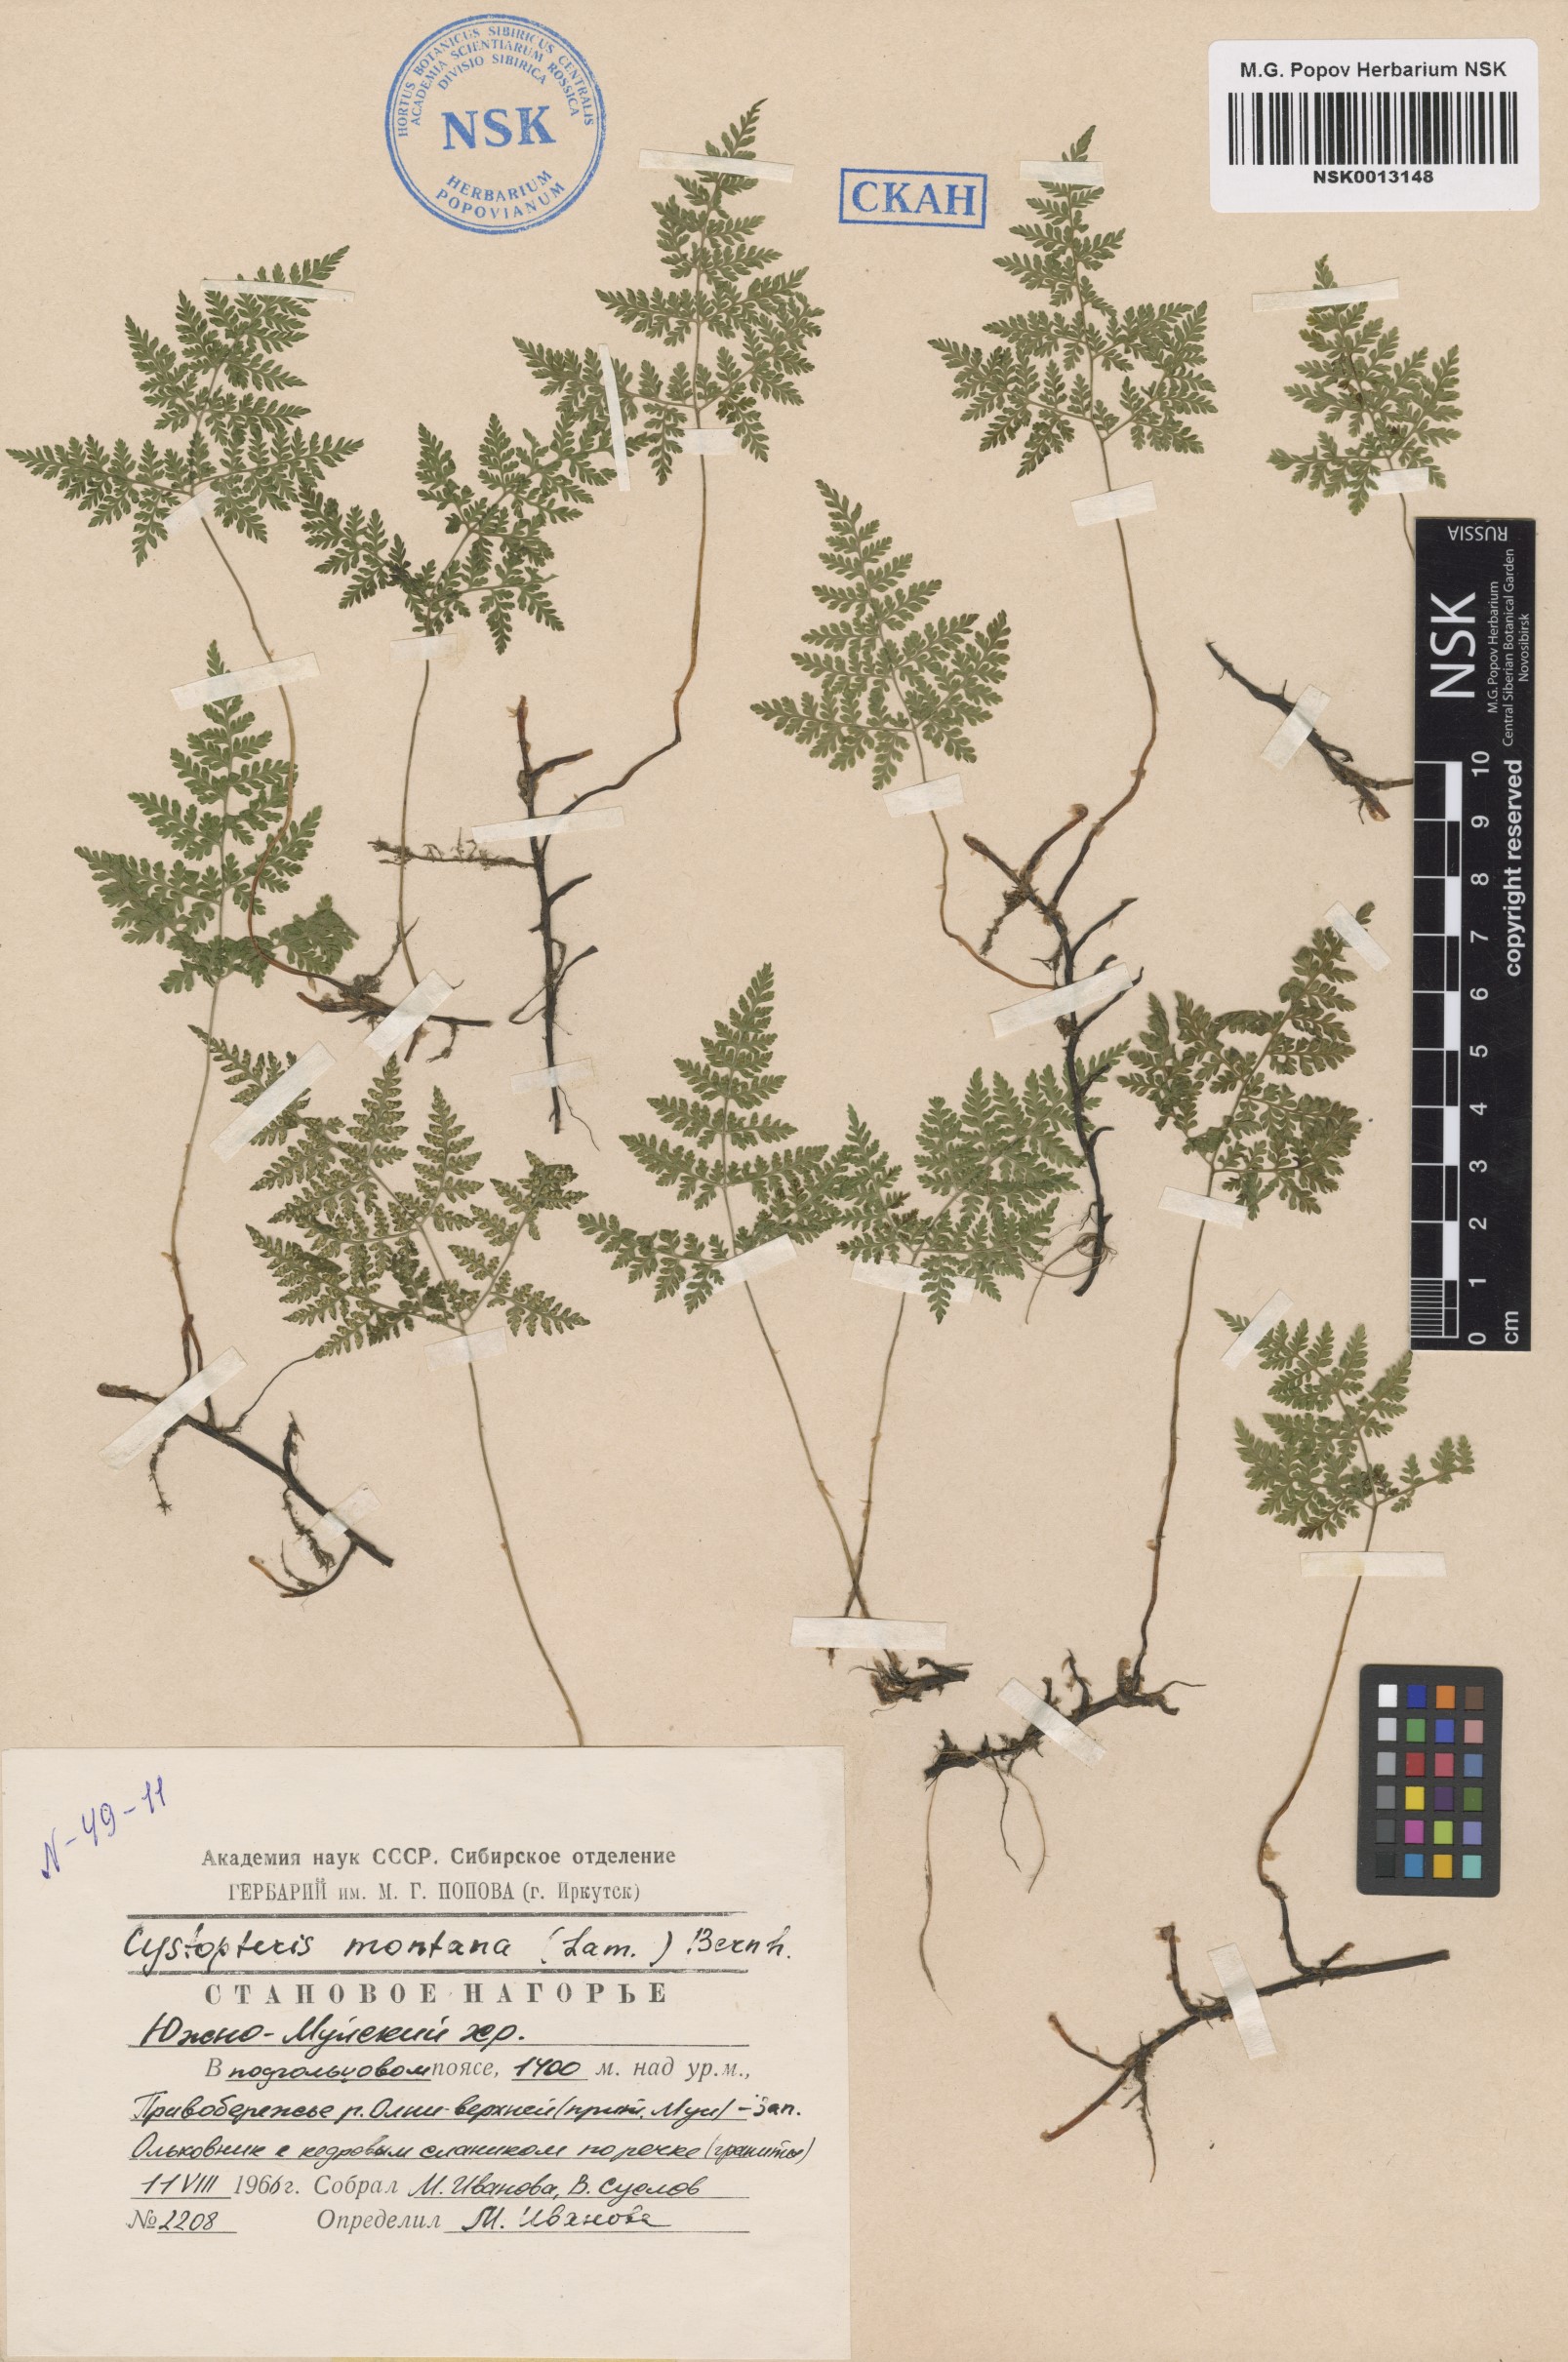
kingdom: Plantae
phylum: Tracheophyta
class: Polypodiopsida
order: Polypodiales
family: Cystopteridaceae
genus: Cystopteris
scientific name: Cystopteris montana
